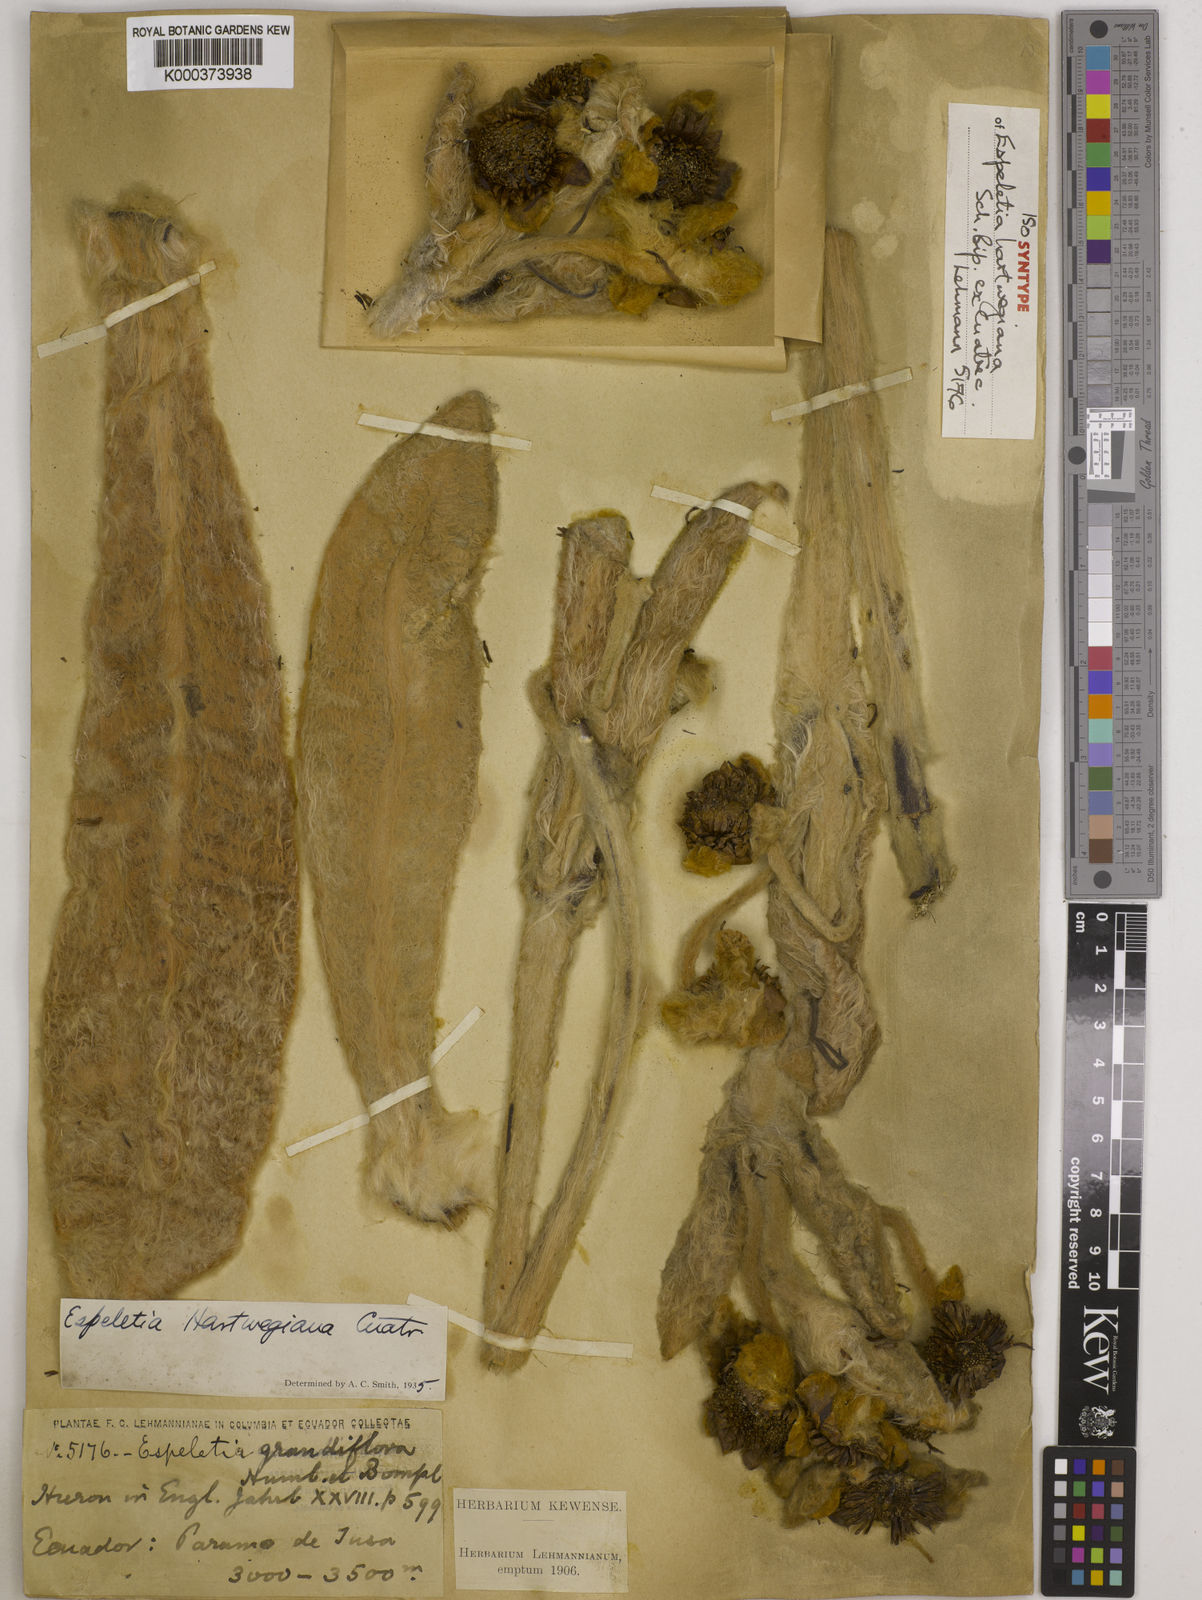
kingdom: Plantae
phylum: Tracheophyta
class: Magnoliopsida
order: Asterales
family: Asteraceae
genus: Espeletia
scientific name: Espeletia hartwegiana
